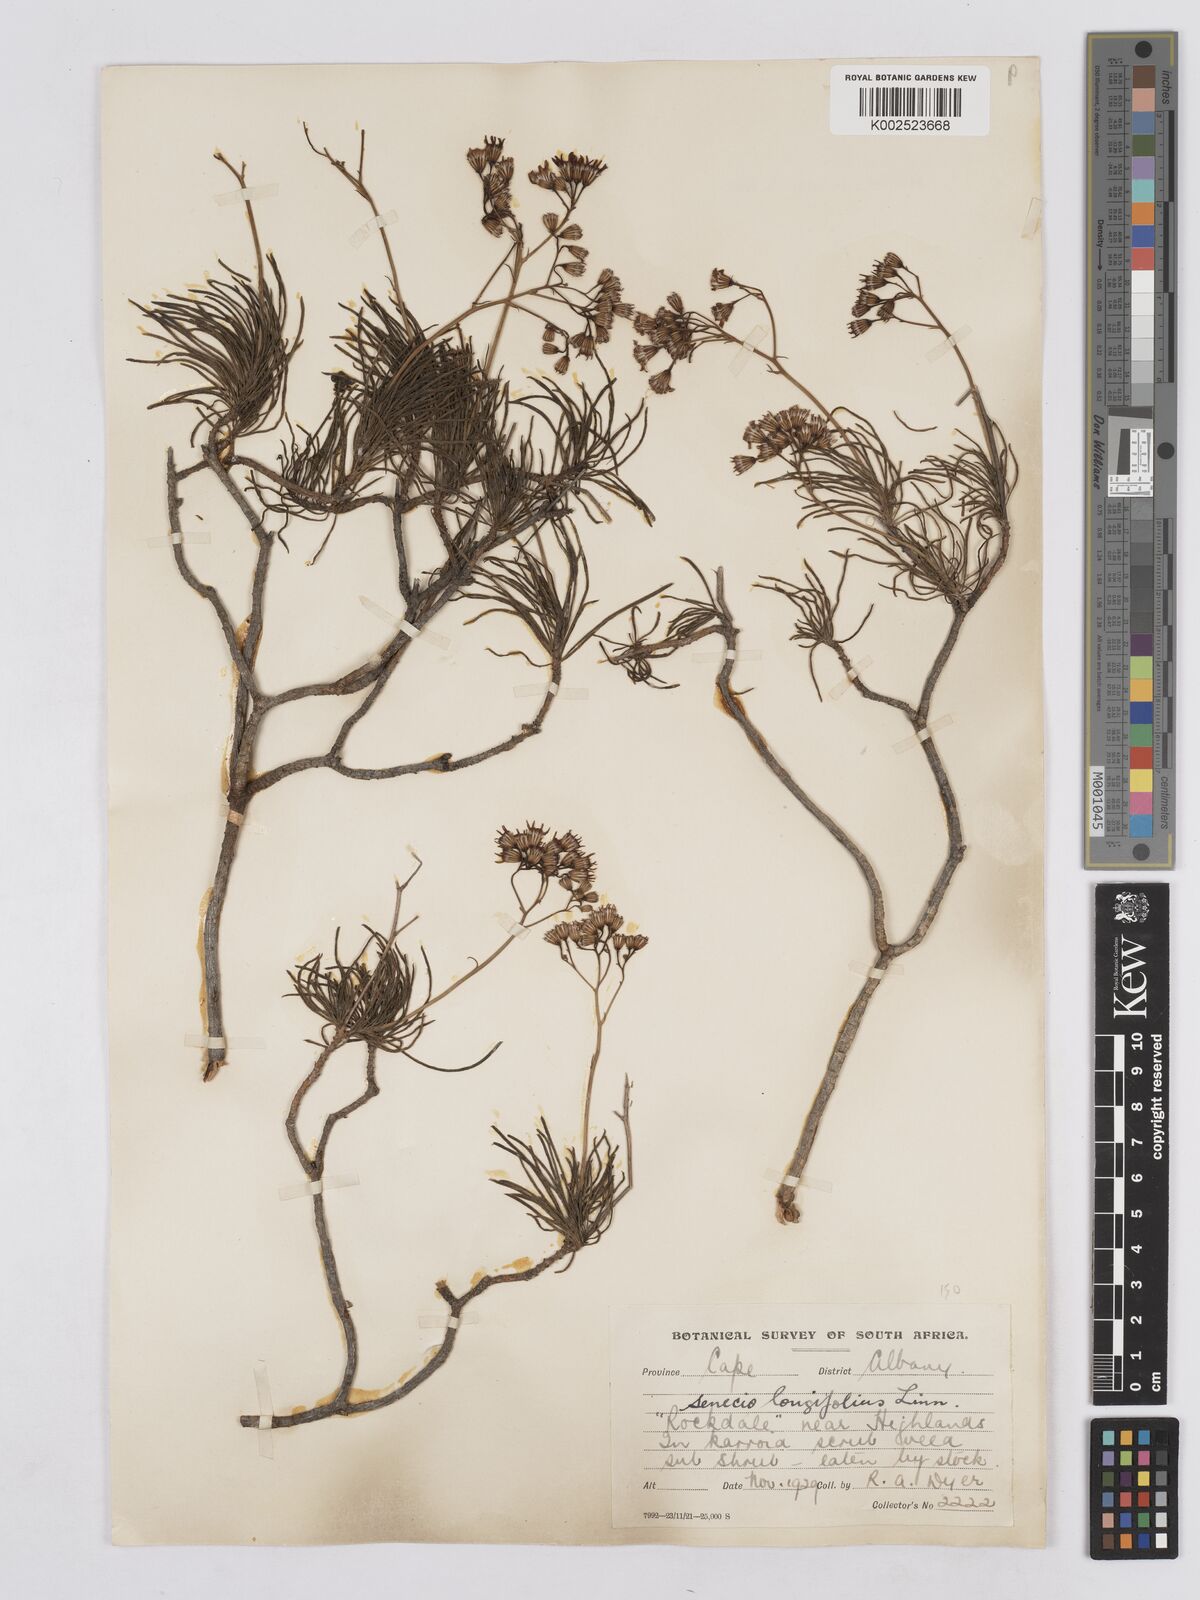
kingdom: Plantae
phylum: Tracheophyta
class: Magnoliopsida
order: Asterales
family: Asteraceae
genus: Senecio
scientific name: Senecio linifolius
